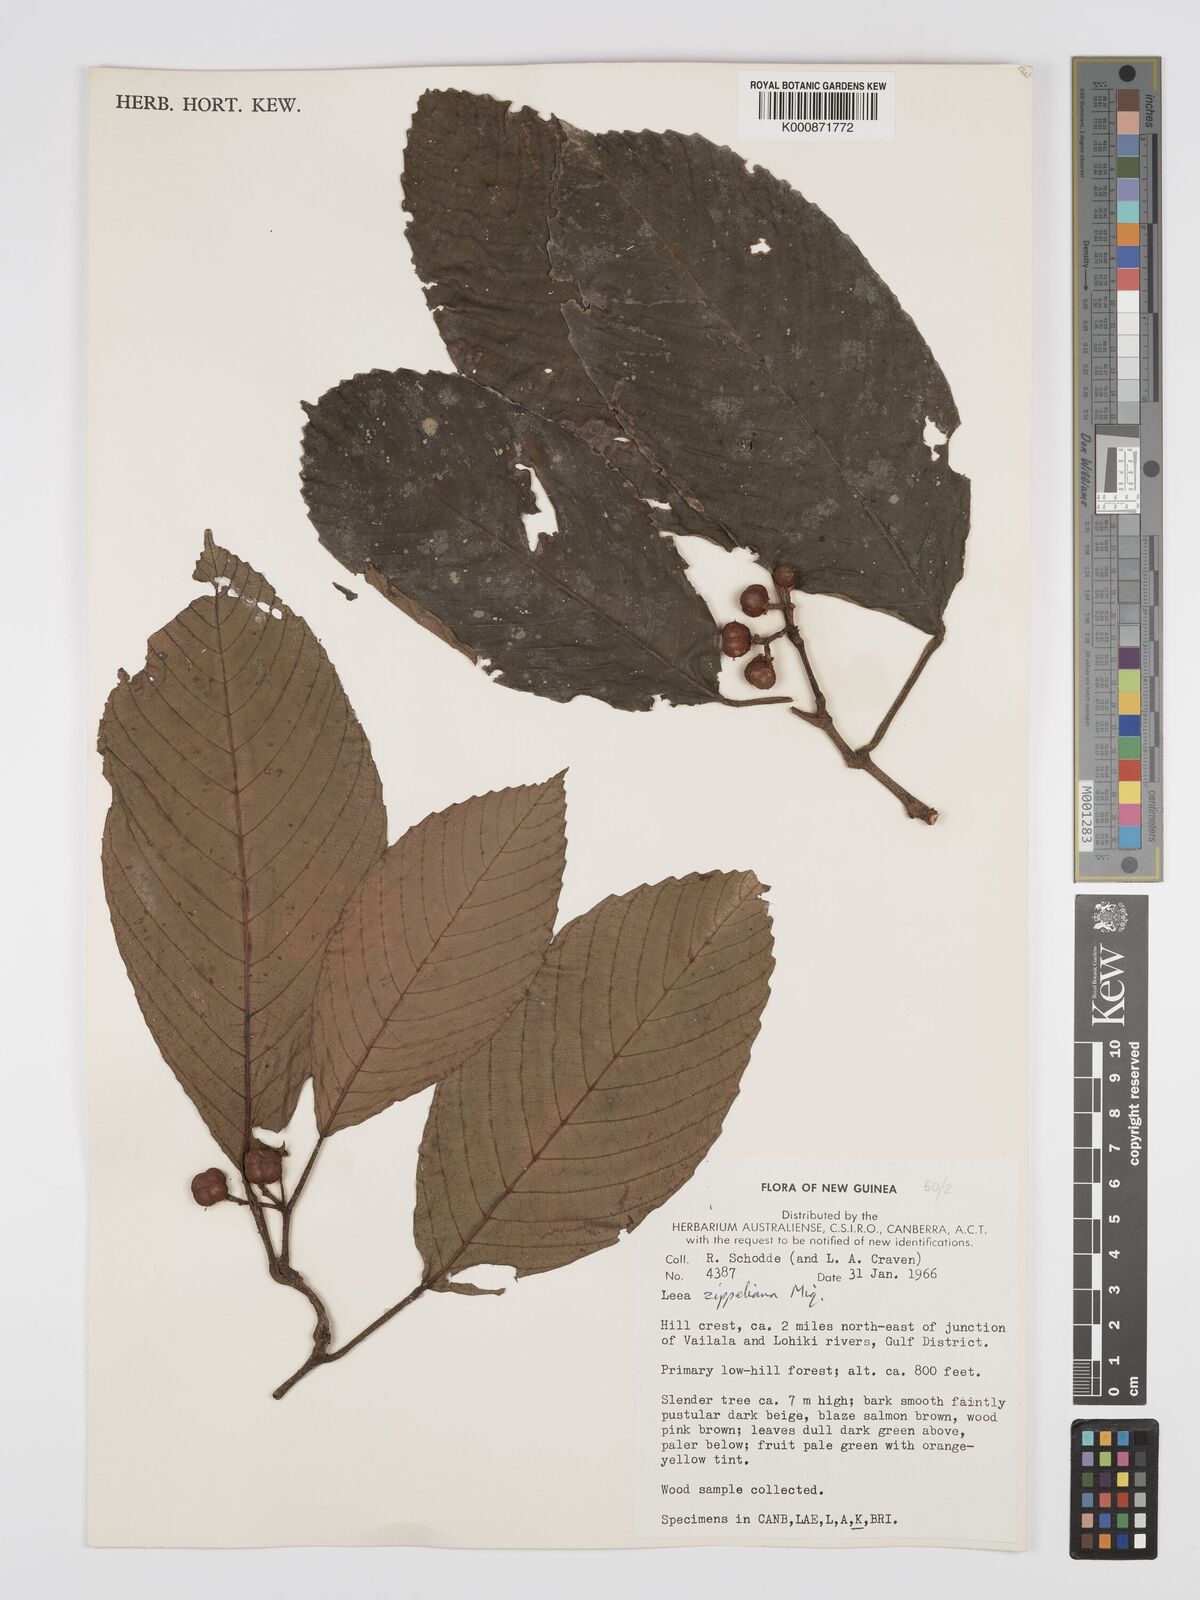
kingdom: Plantae
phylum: Tracheophyta
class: Magnoliopsida
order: Vitales
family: Vitaceae
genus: Leea
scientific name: Leea zippeliana
